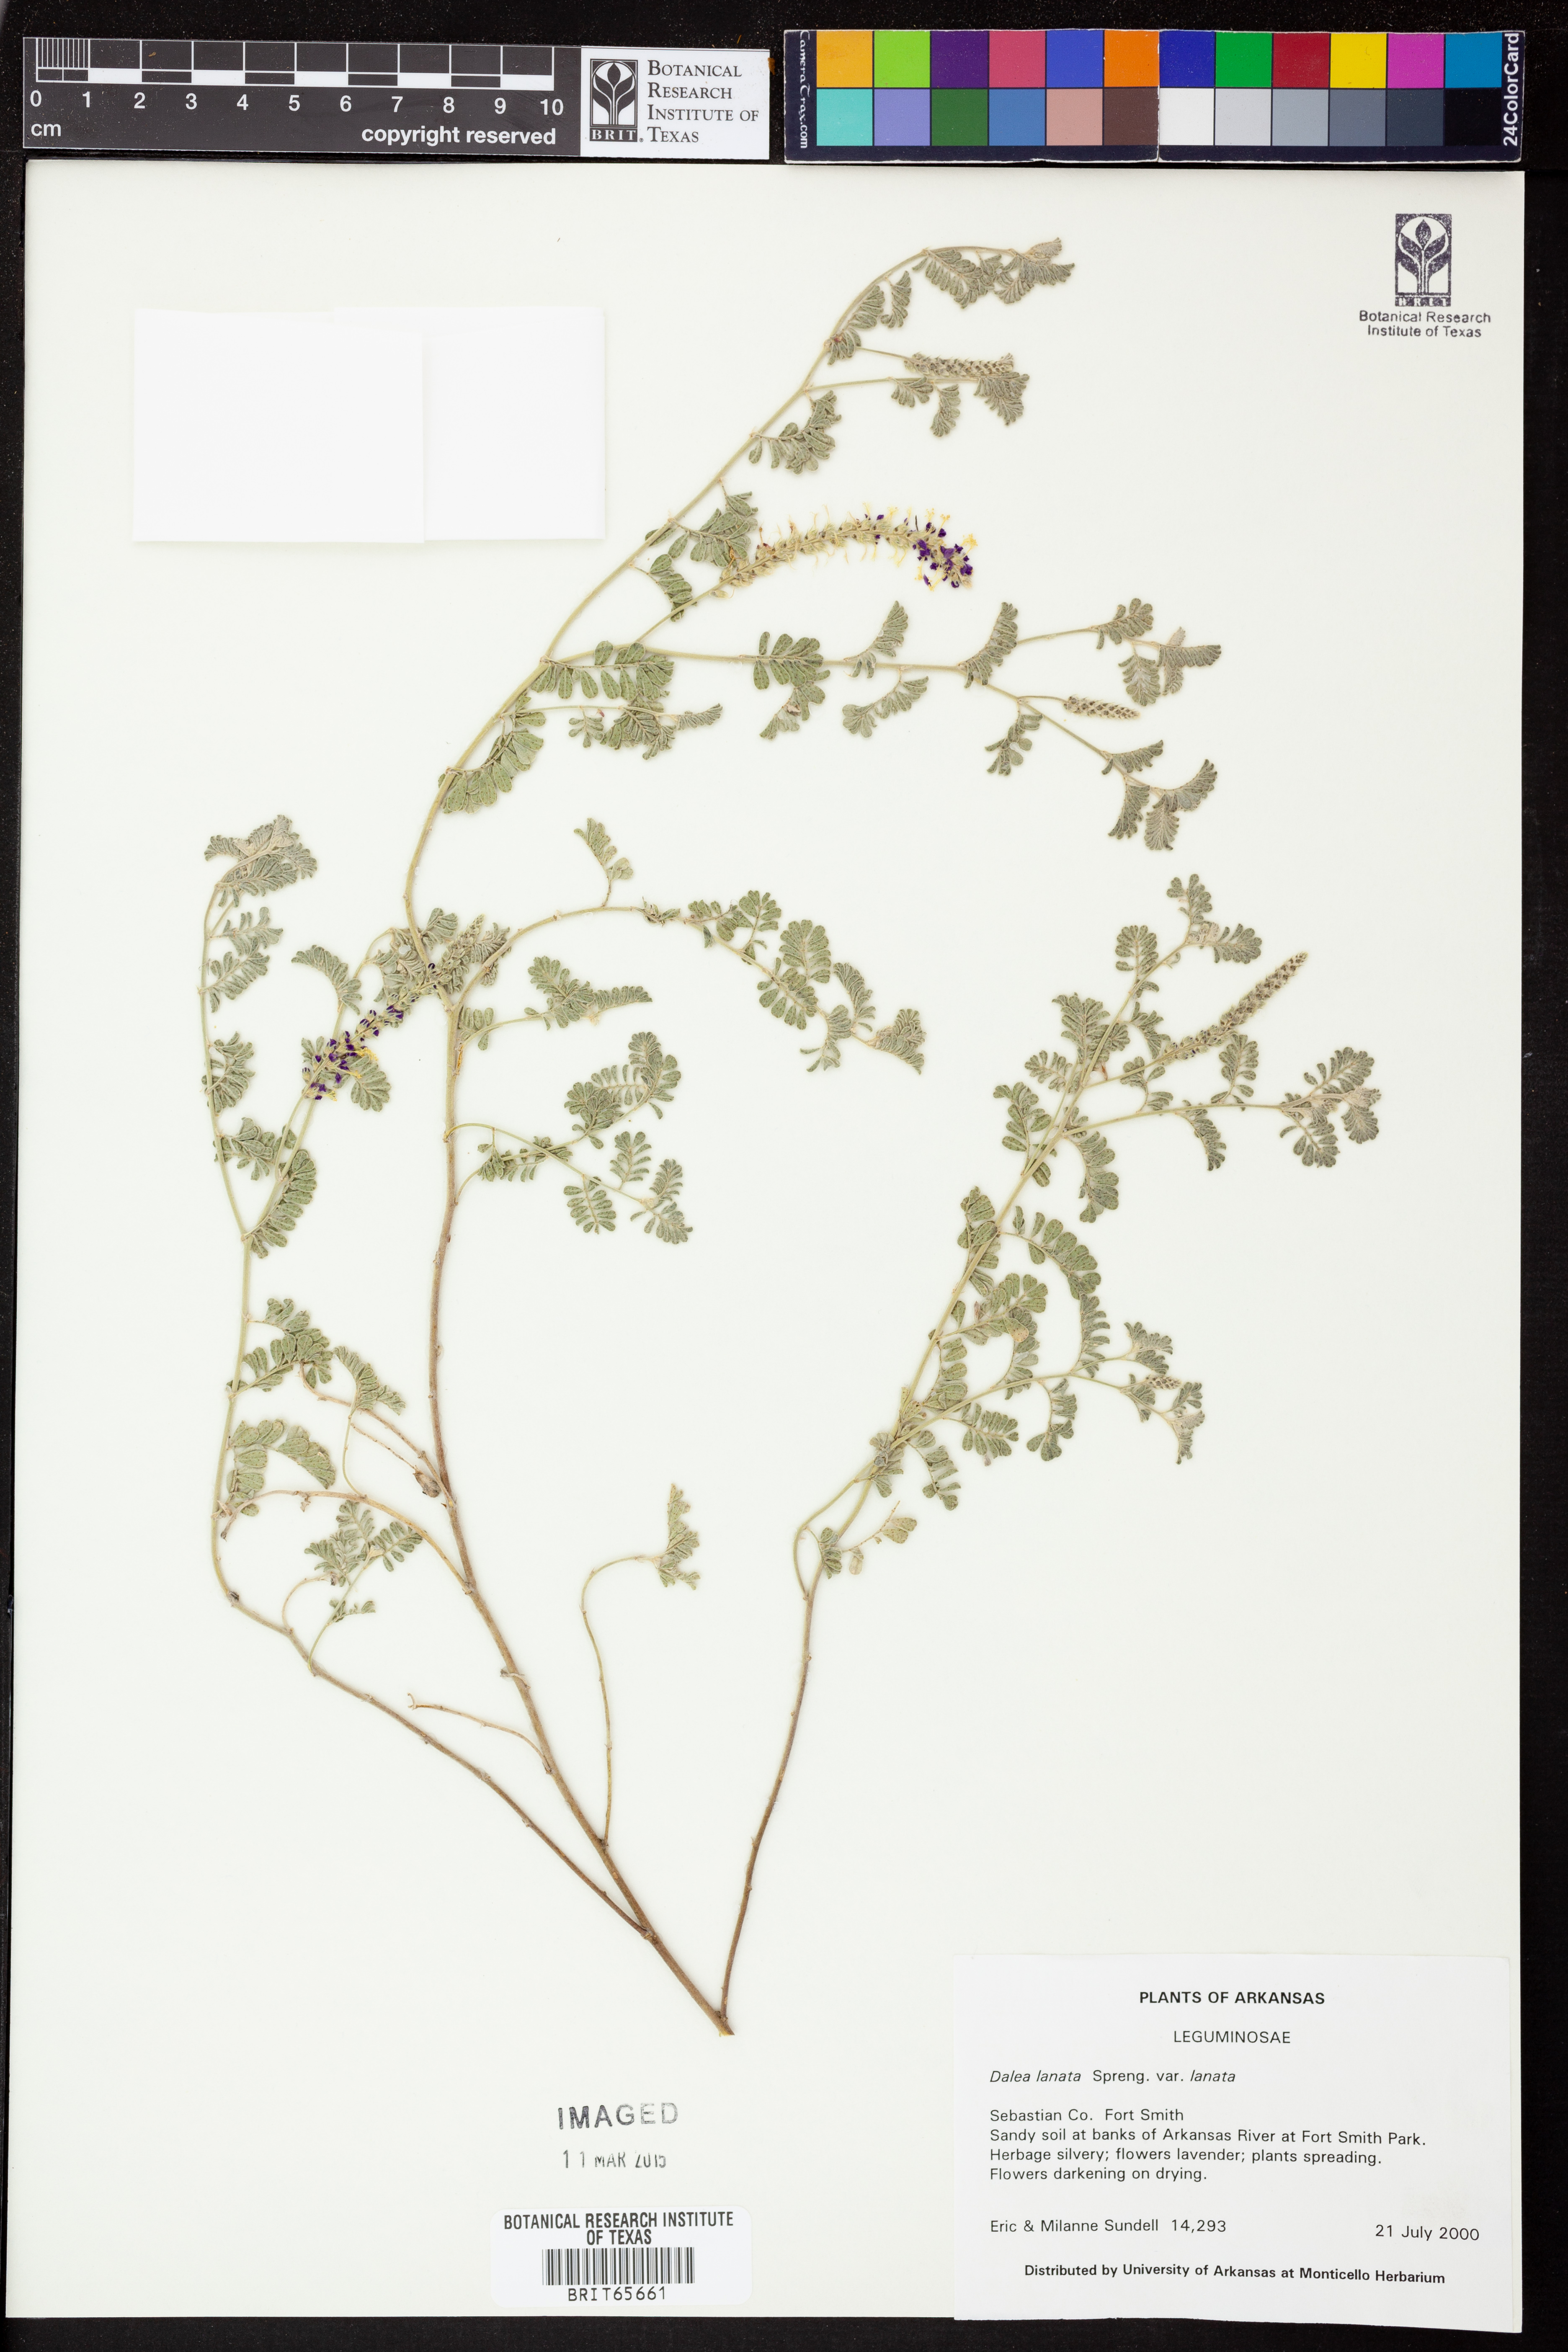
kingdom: Plantae
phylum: Tracheophyta
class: Magnoliopsida
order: Fabales
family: Fabaceae
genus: Dalea
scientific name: Dalea lanata
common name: Woolly dalea
